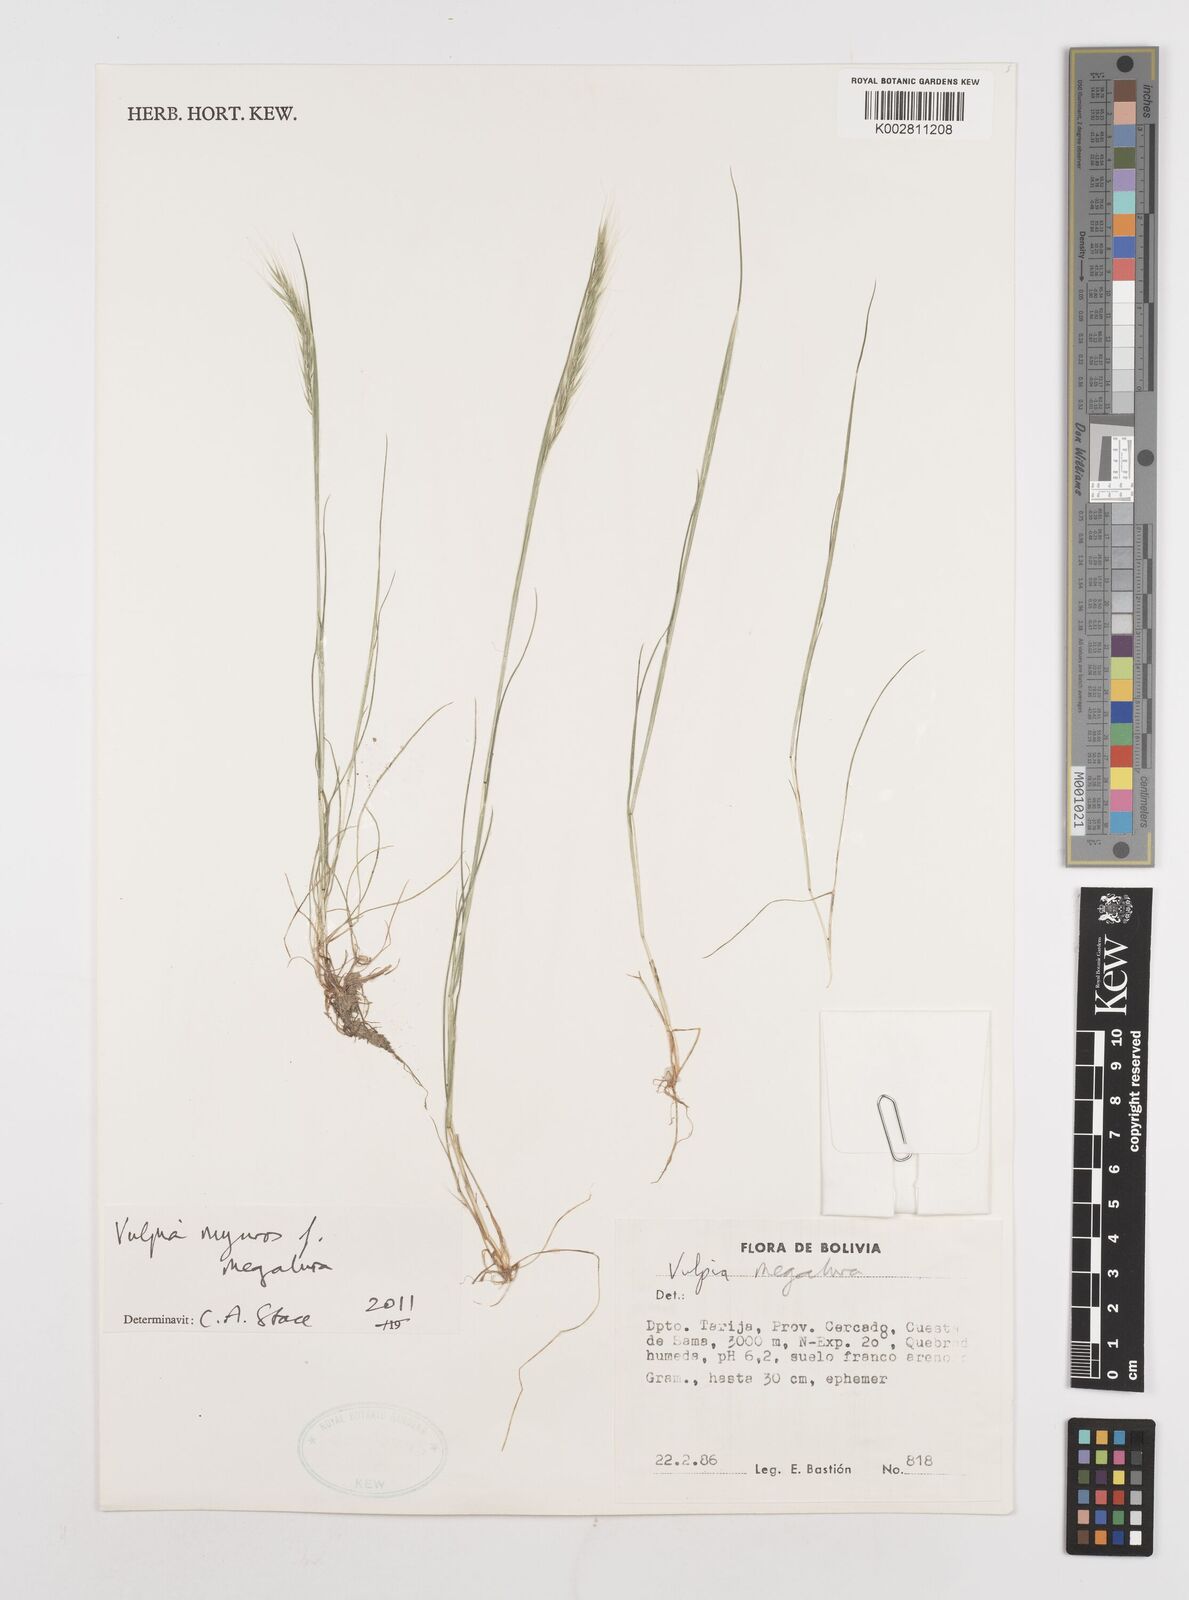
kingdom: Plantae
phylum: Tracheophyta
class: Liliopsida
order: Poales
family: Poaceae
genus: Festuca
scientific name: Festuca myuros
